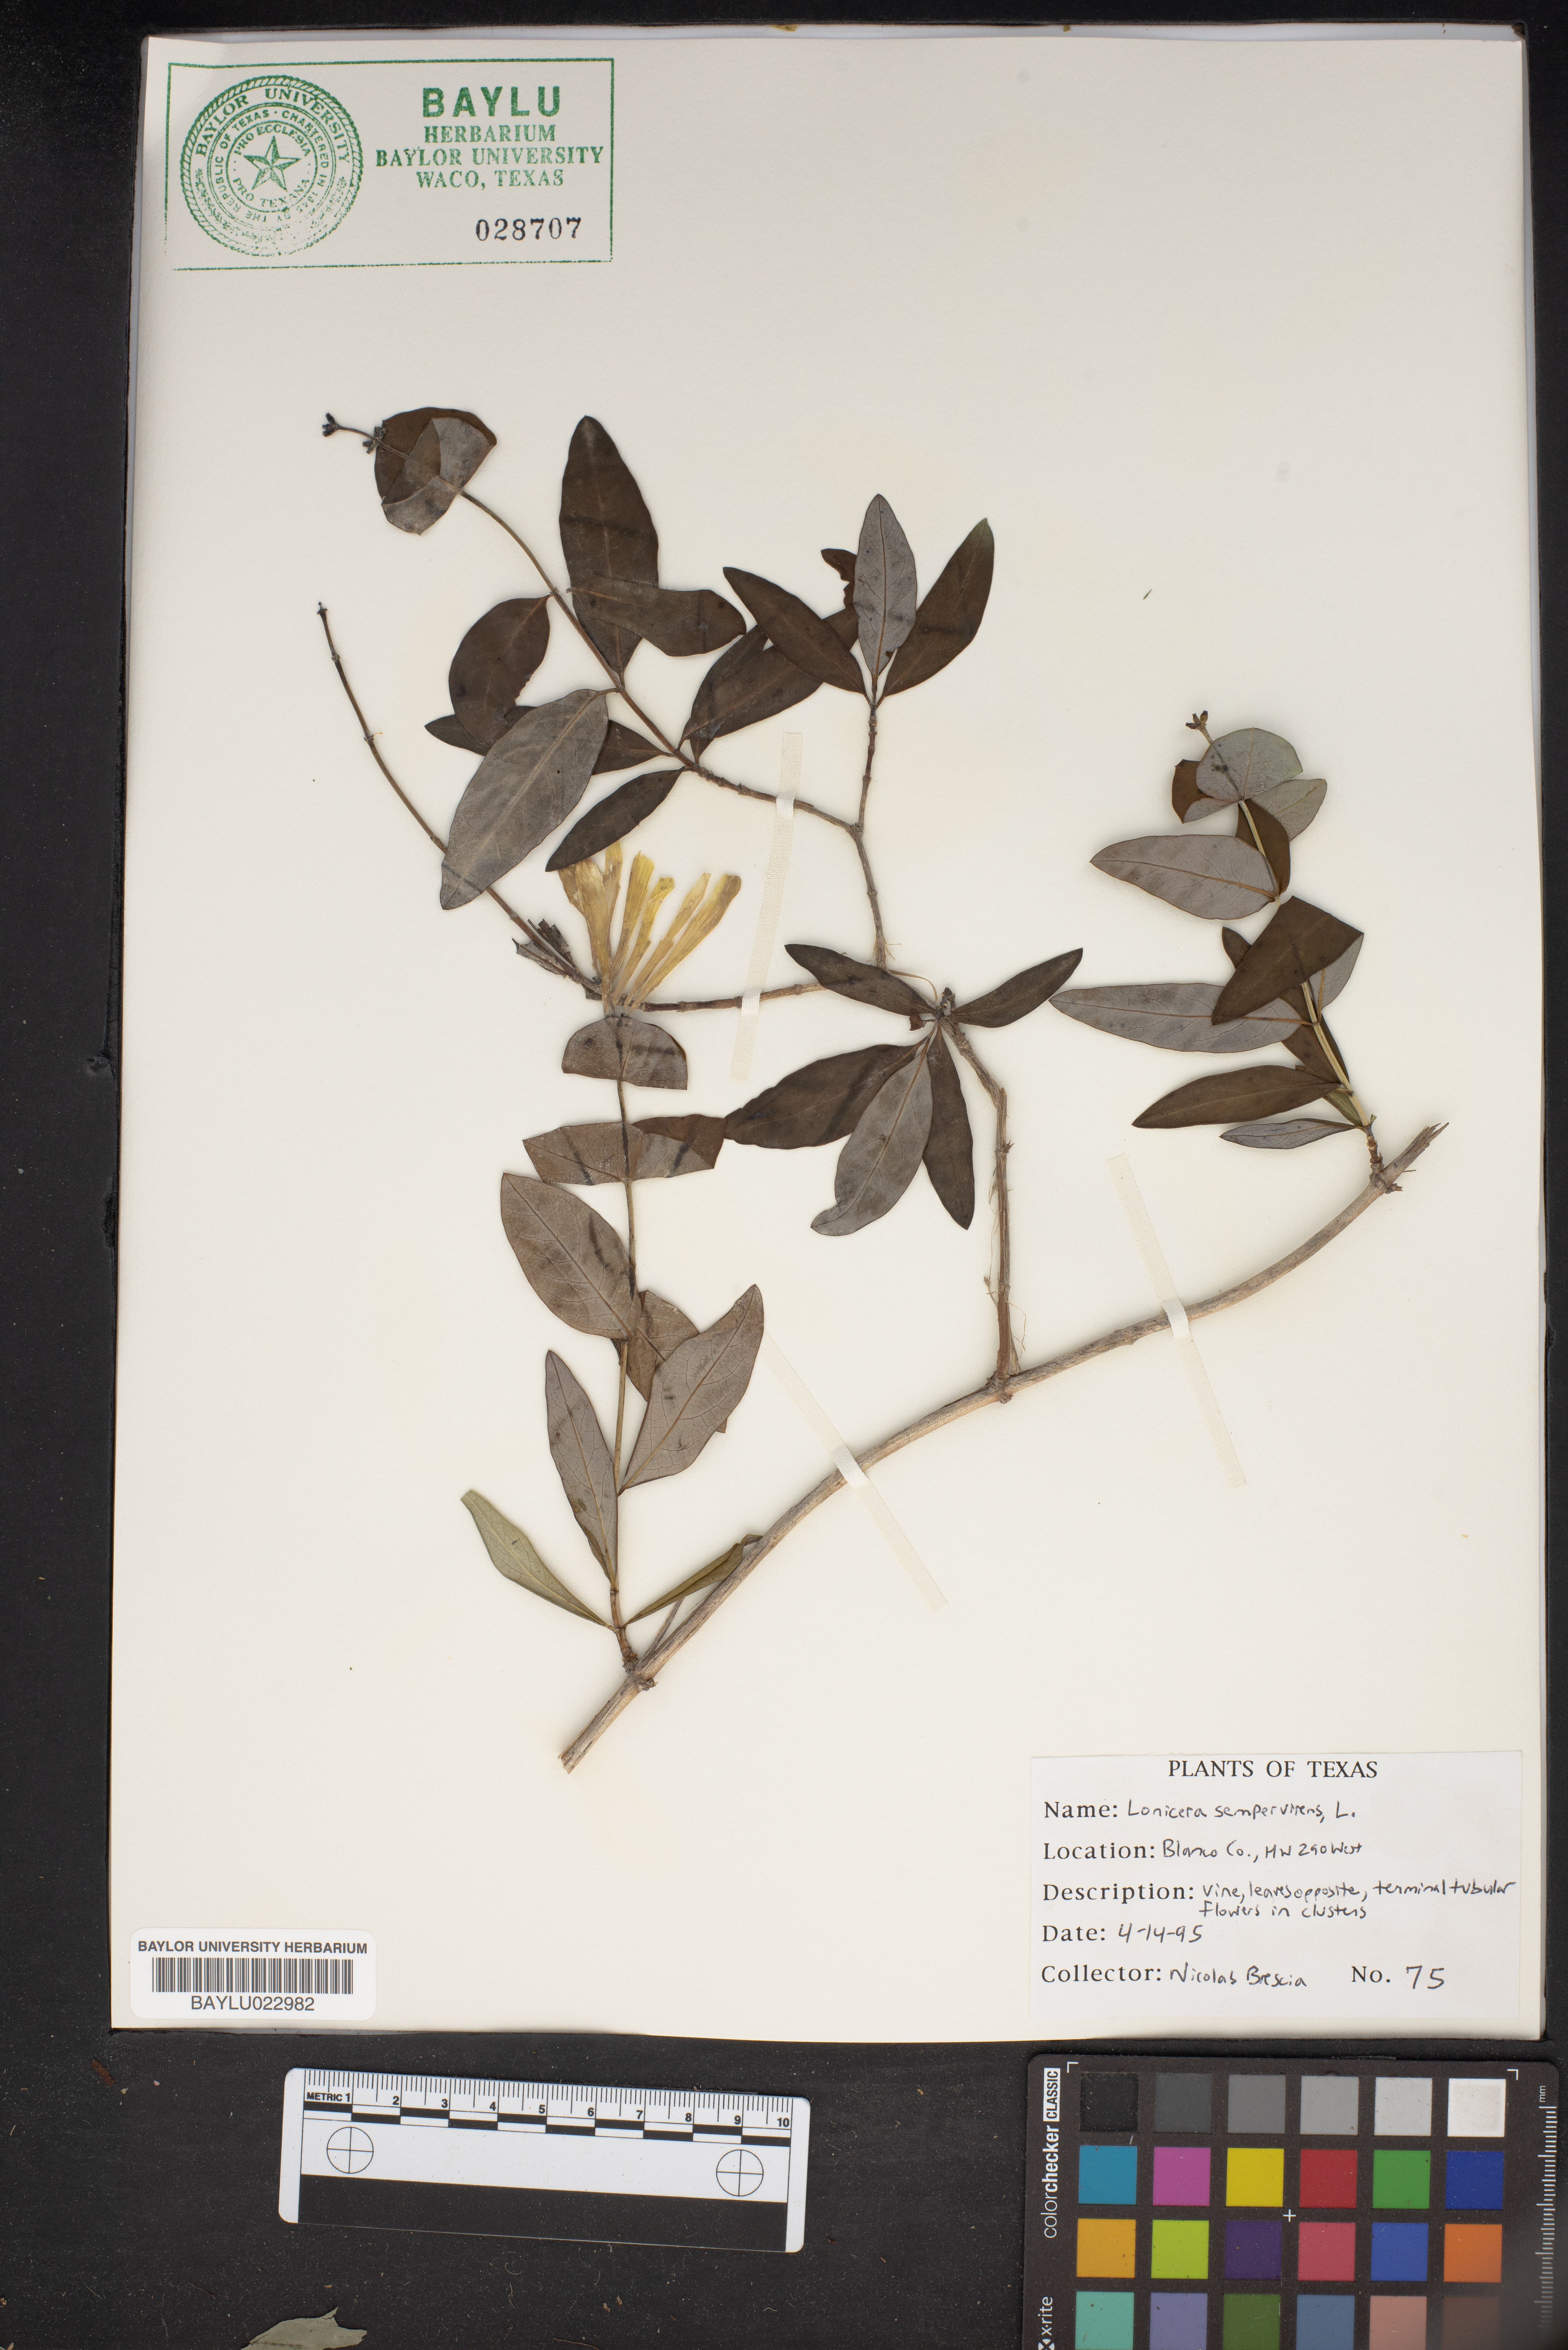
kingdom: Plantae
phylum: Tracheophyta
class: Magnoliopsida
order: Dipsacales
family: Caprifoliaceae
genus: Lonicera
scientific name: Lonicera sempervirens
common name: Coral honeysuckle
